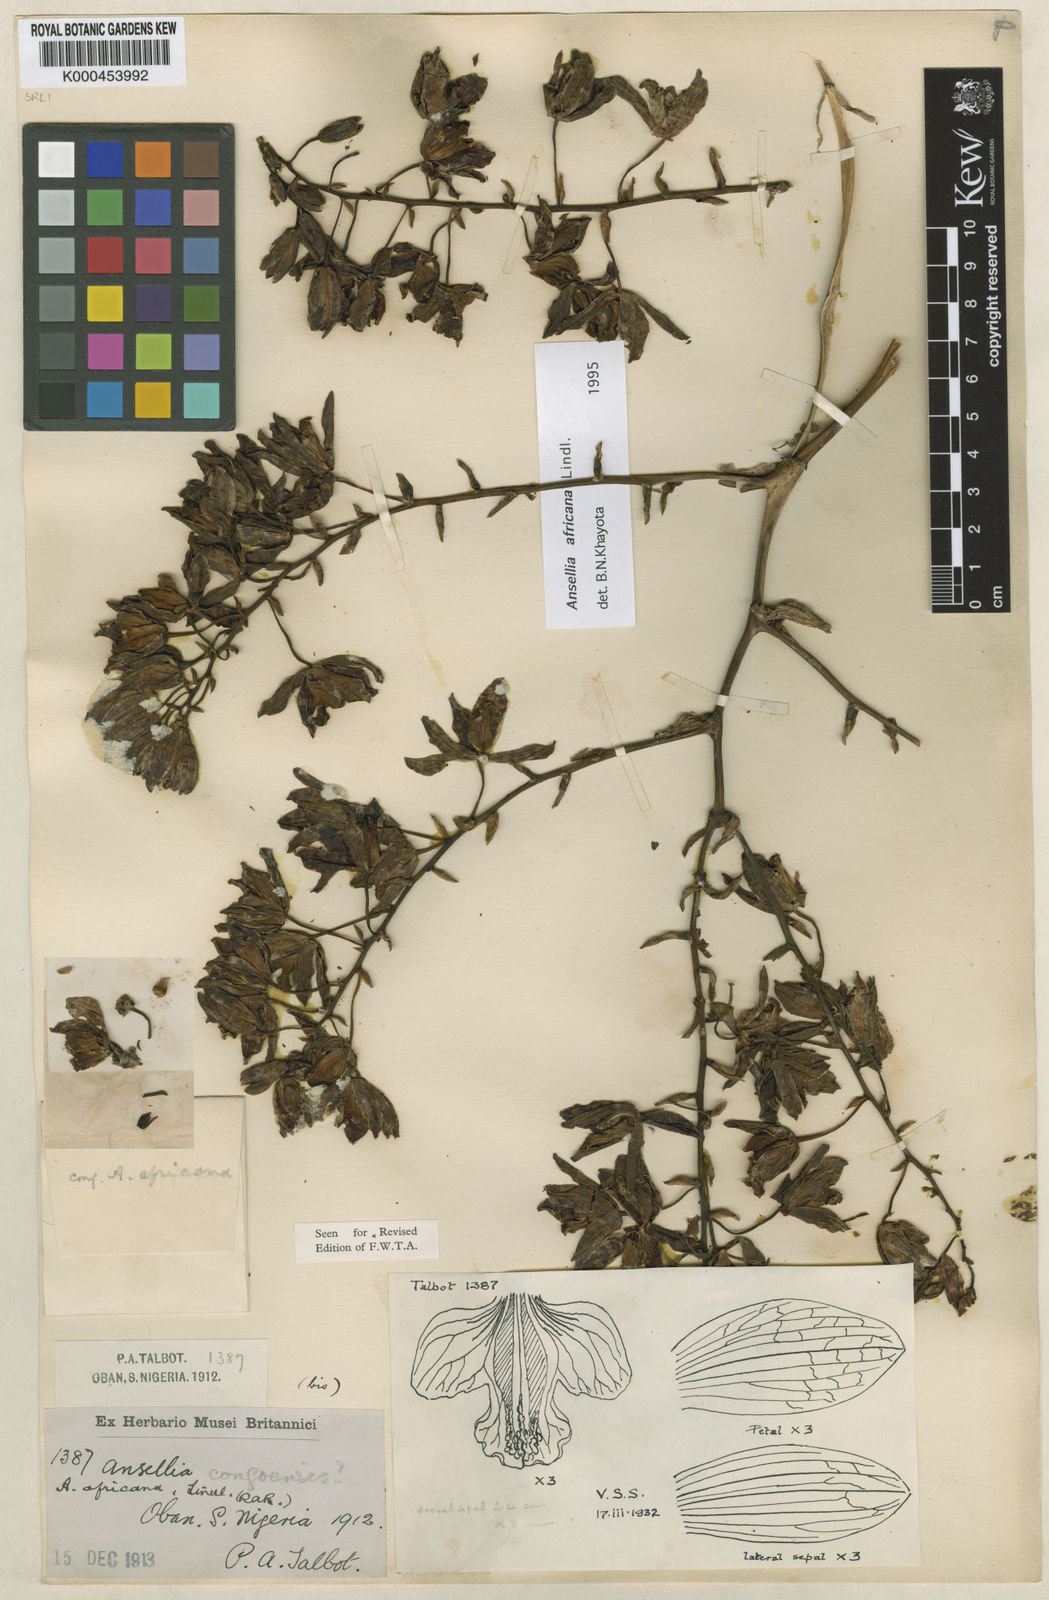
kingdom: Plantae
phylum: Tracheophyta
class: Liliopsida
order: Asparagales
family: Orchidaceae
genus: Ansellia
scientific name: Ansellia africana
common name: African ansellia
